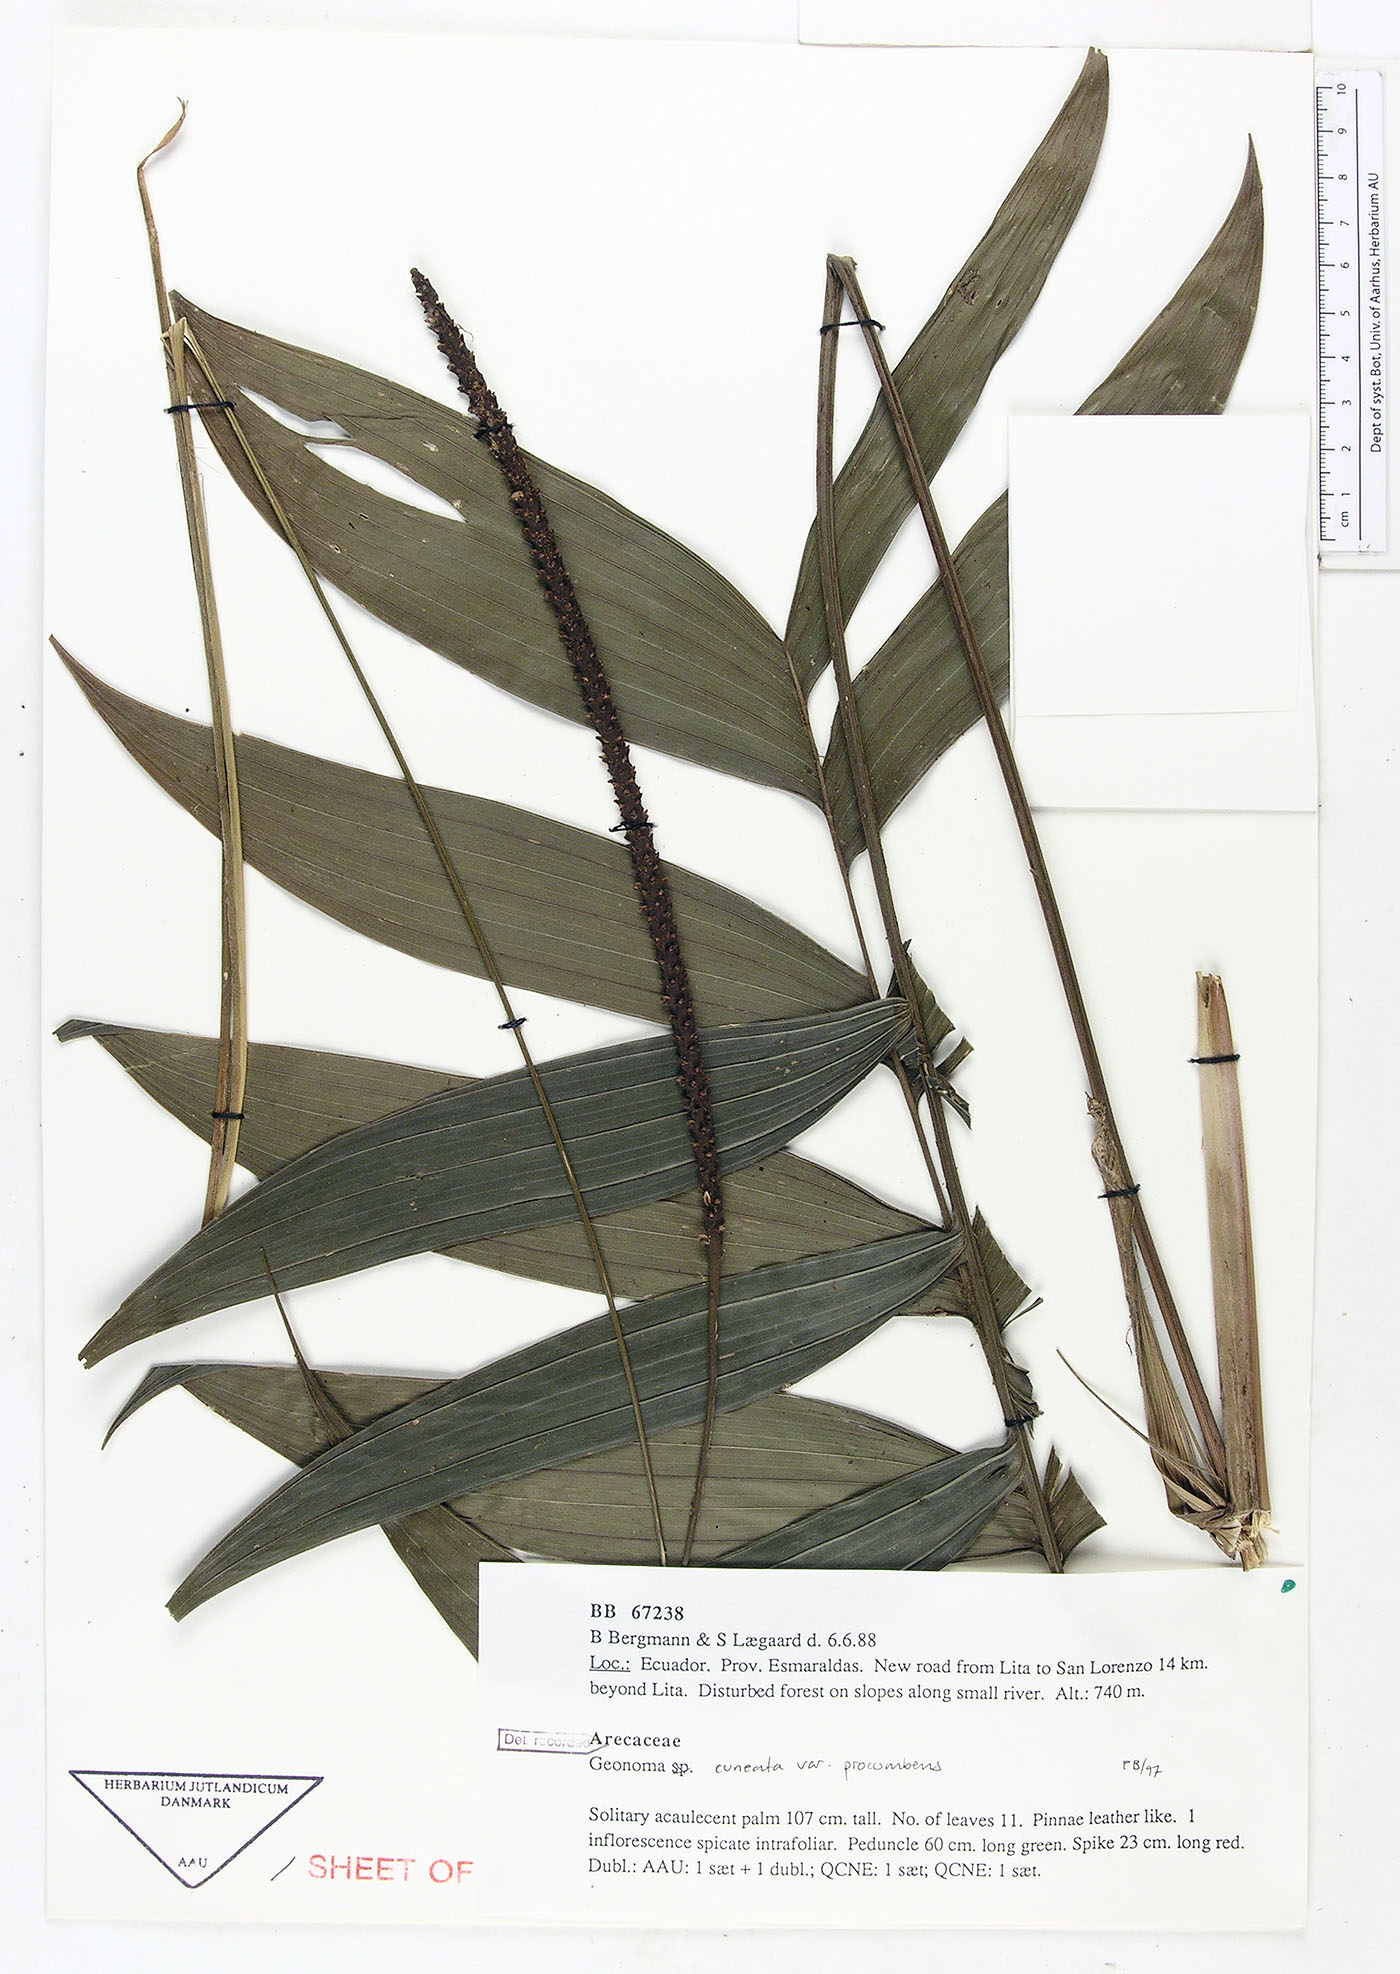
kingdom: Plantae
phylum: Tracheophyta
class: Liliopsida
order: Arecales
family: Arecaceae
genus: Geonoma
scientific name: Geonoma cuneata
